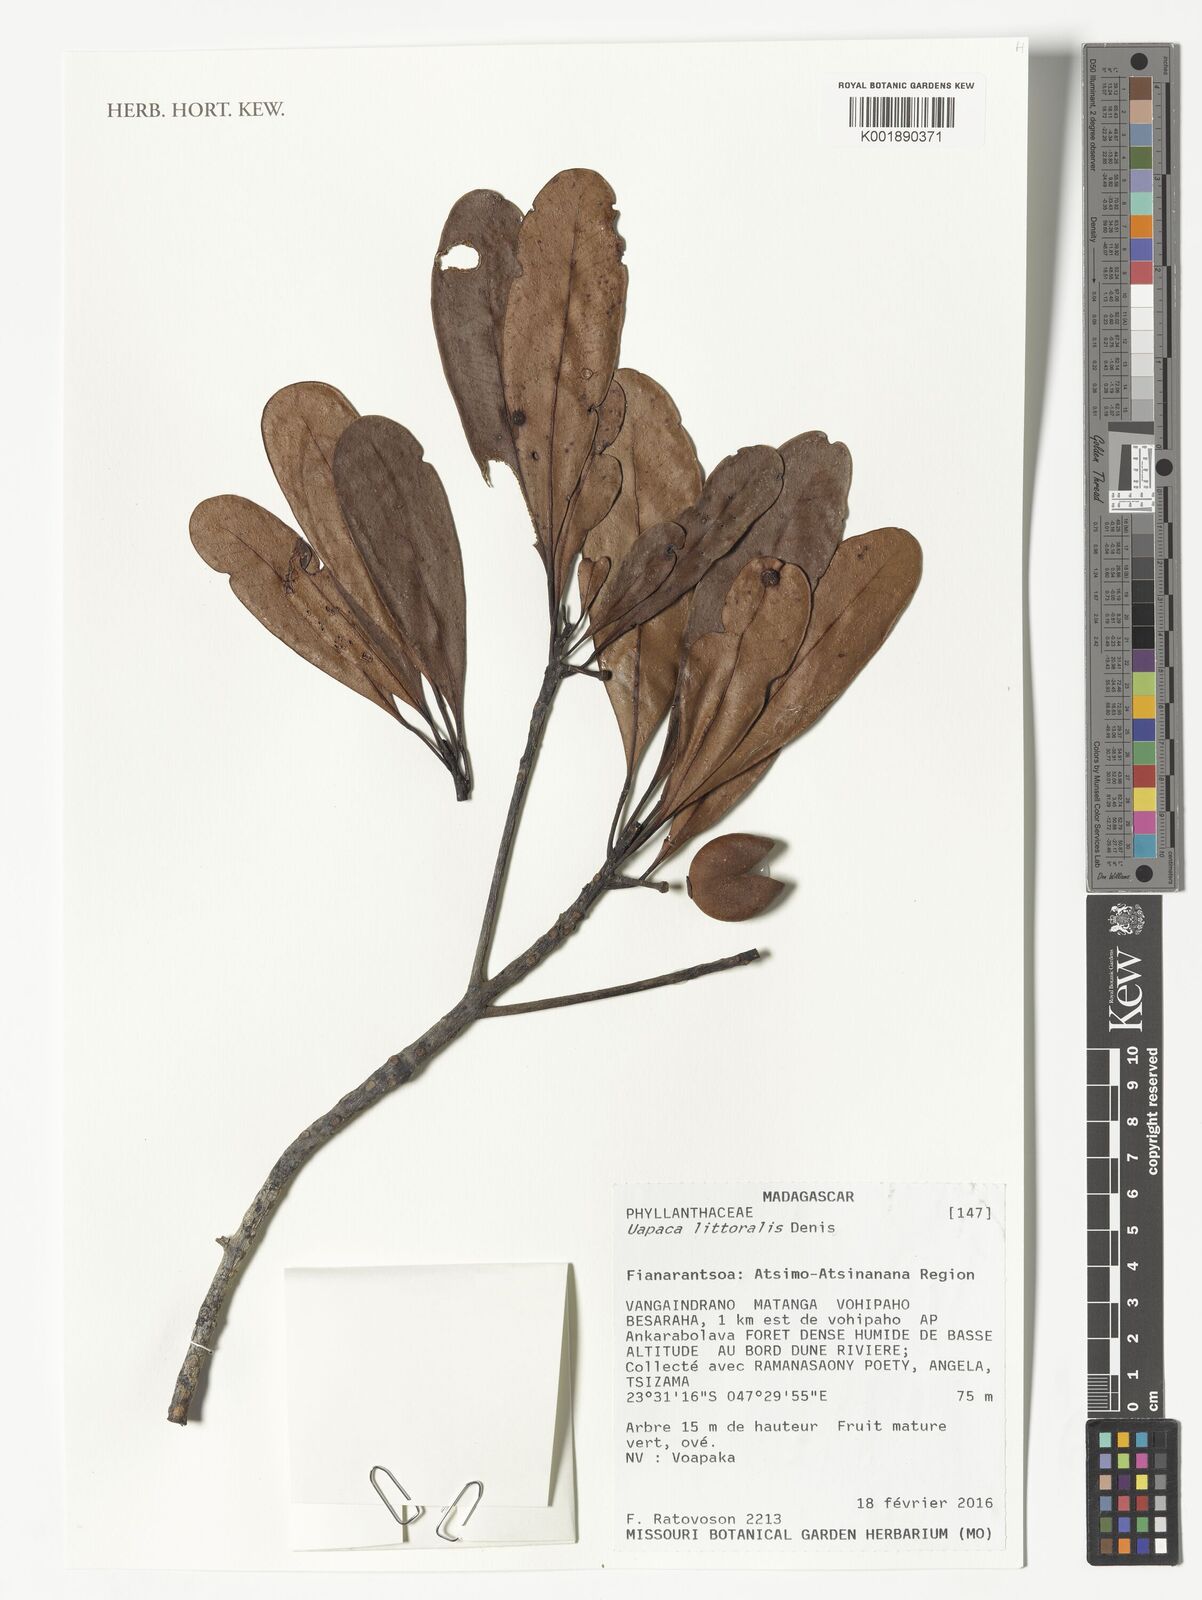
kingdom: Plantae
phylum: Tracheophyta
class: Magnoliopsida
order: Malpighiales
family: Phyllanthaceae
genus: Uapaca
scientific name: Uapaca littoralis
